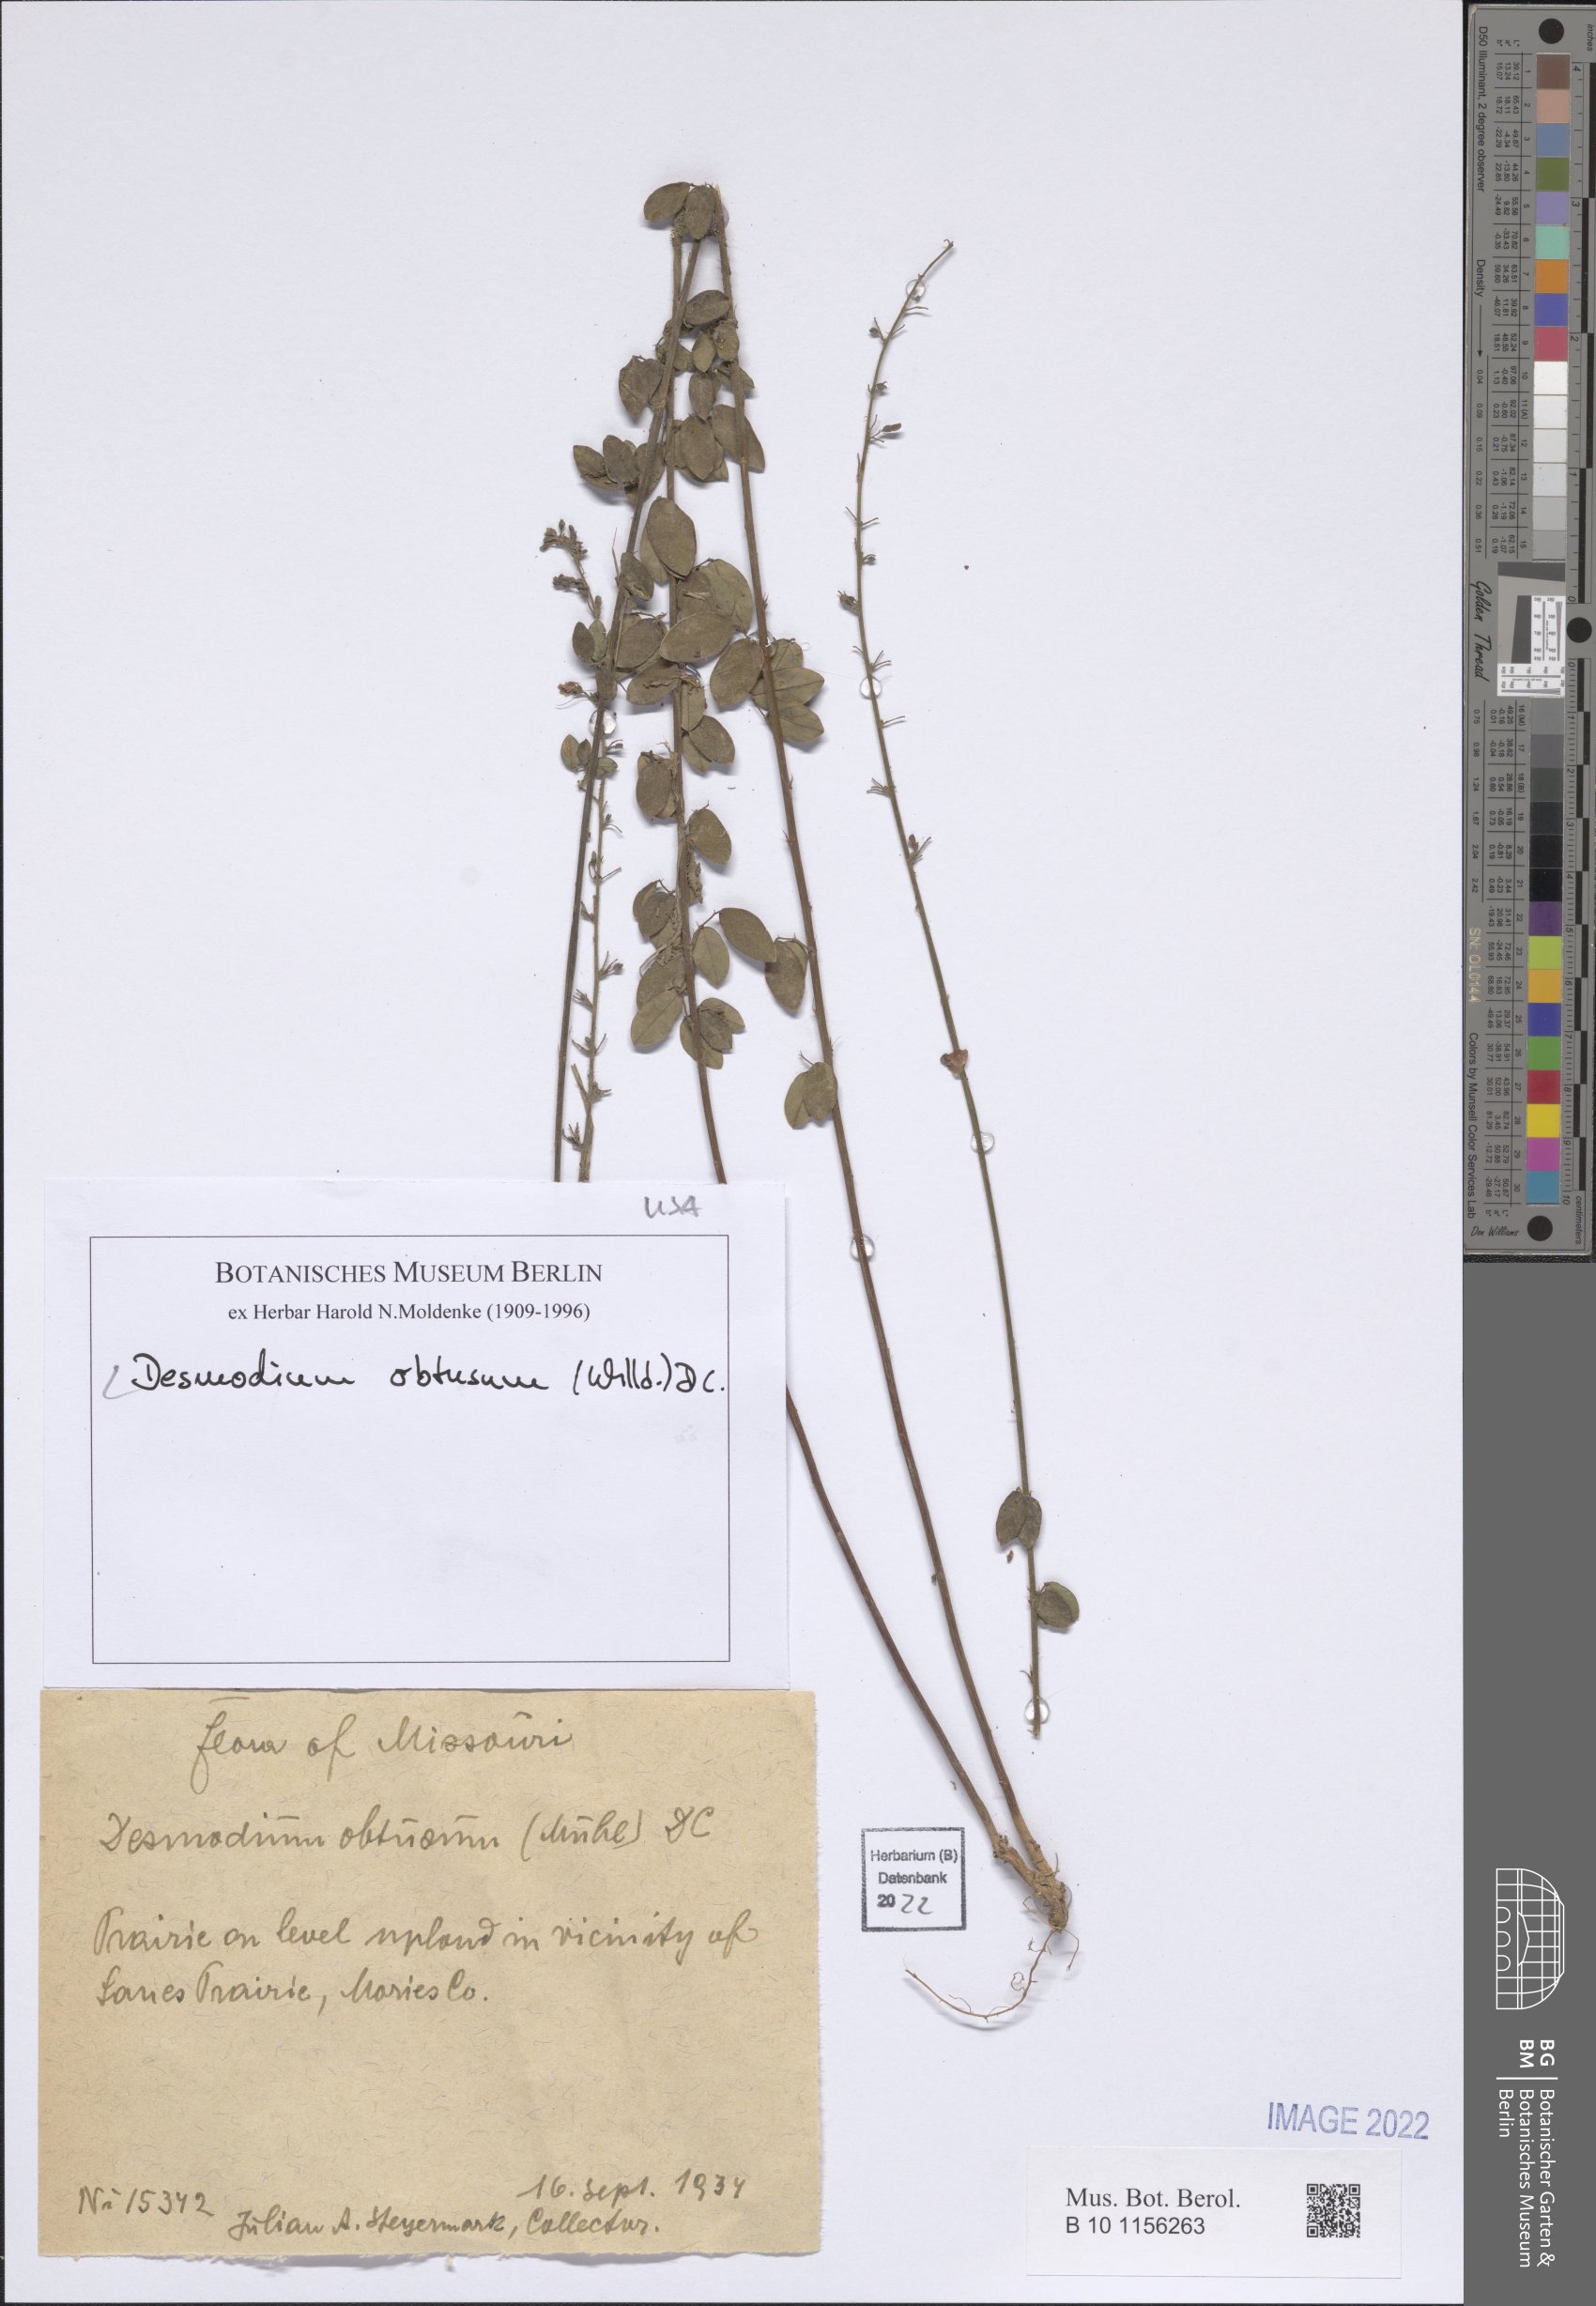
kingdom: Plantae
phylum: Tracheophyta
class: Magnoliopsida
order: Fabales
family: Fabaceae
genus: Desmodium
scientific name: Desmodium obtusum
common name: Stiff tick trefoil
